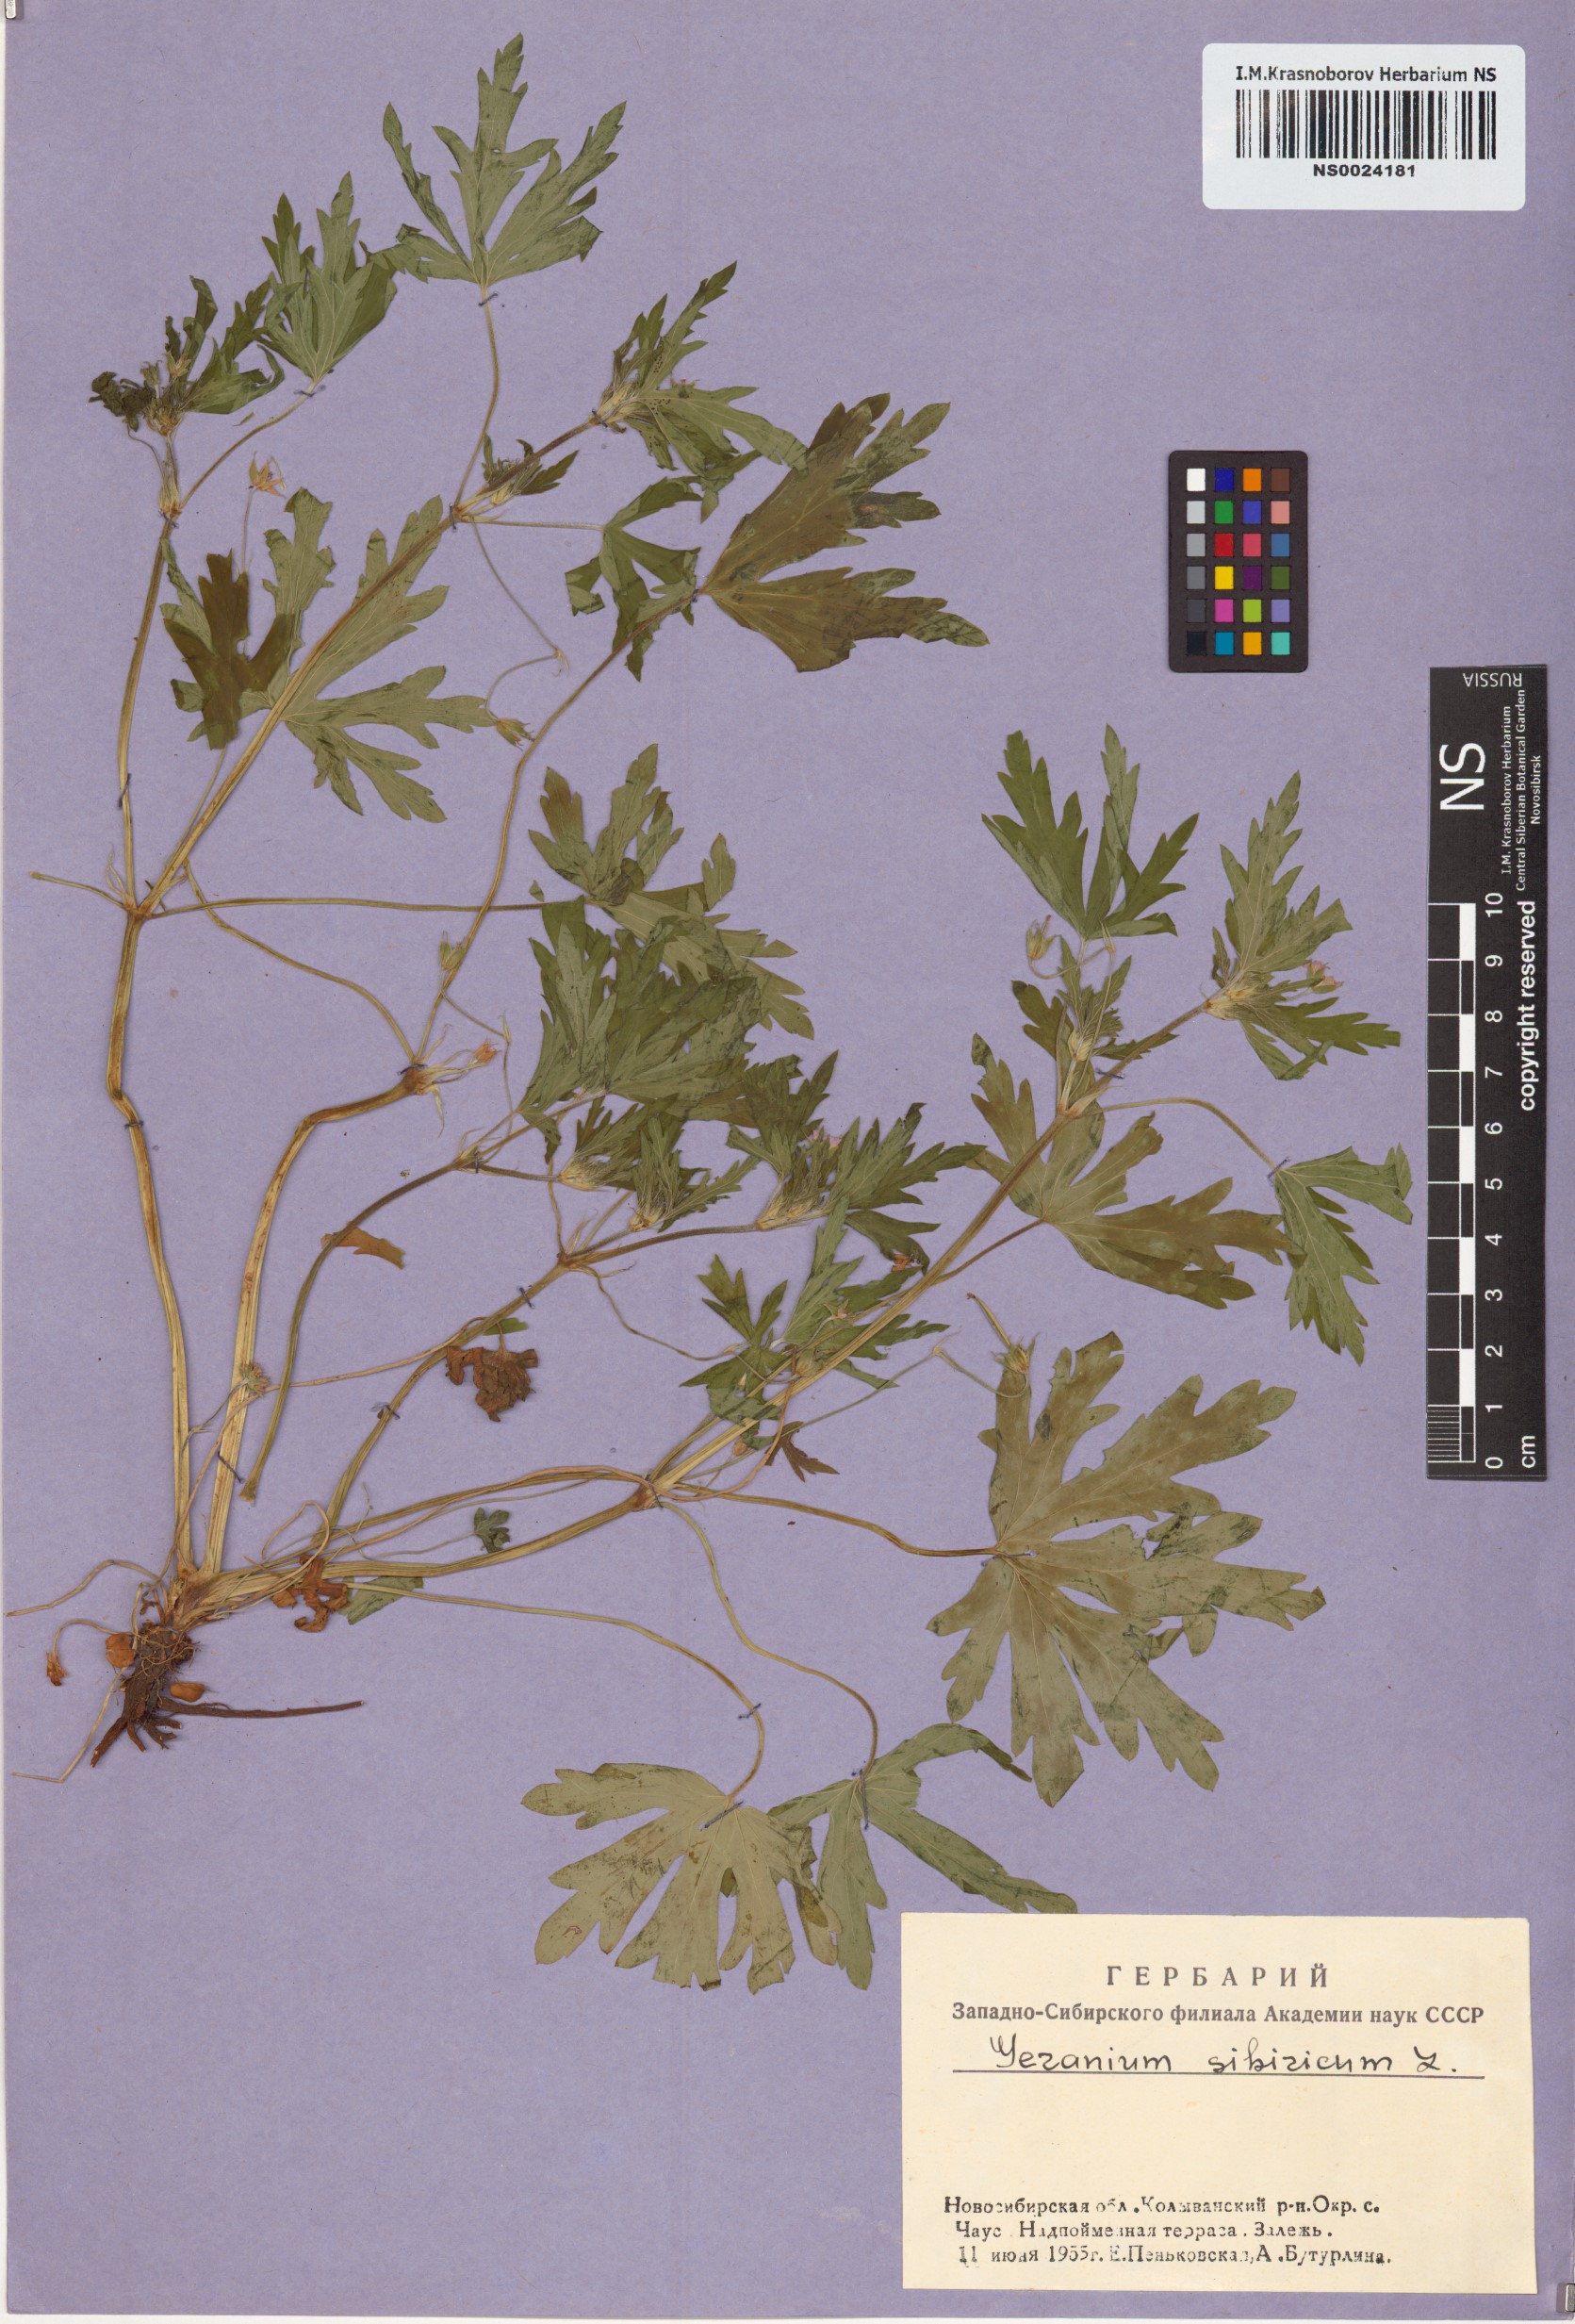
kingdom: Plantae
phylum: Tracheophyta
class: Magnoliopsida
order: Geraniales
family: Geraniaceae
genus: Geranium
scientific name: Geranium sibiricum
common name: Siberian crane's-bill
